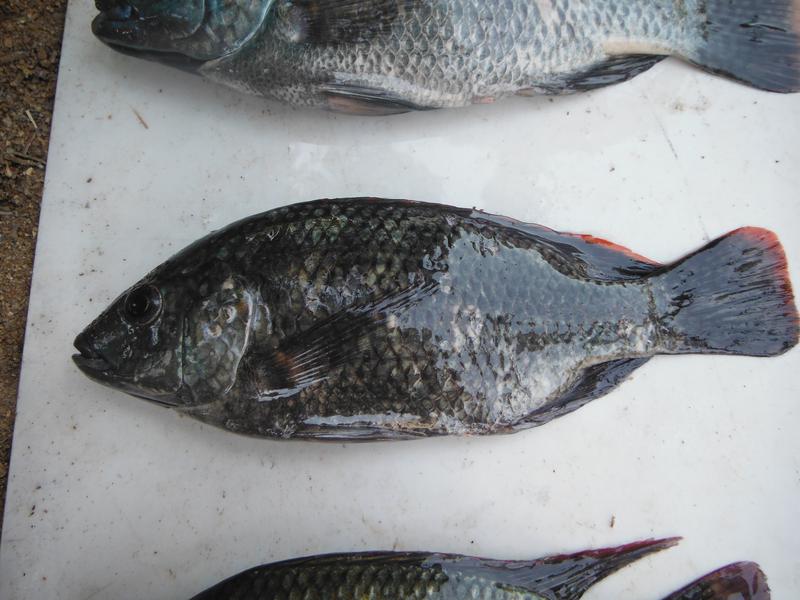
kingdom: Animalia
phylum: Chordata
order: Perciformes
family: Cichlidae
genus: Oreochromis
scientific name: Oreochromis
